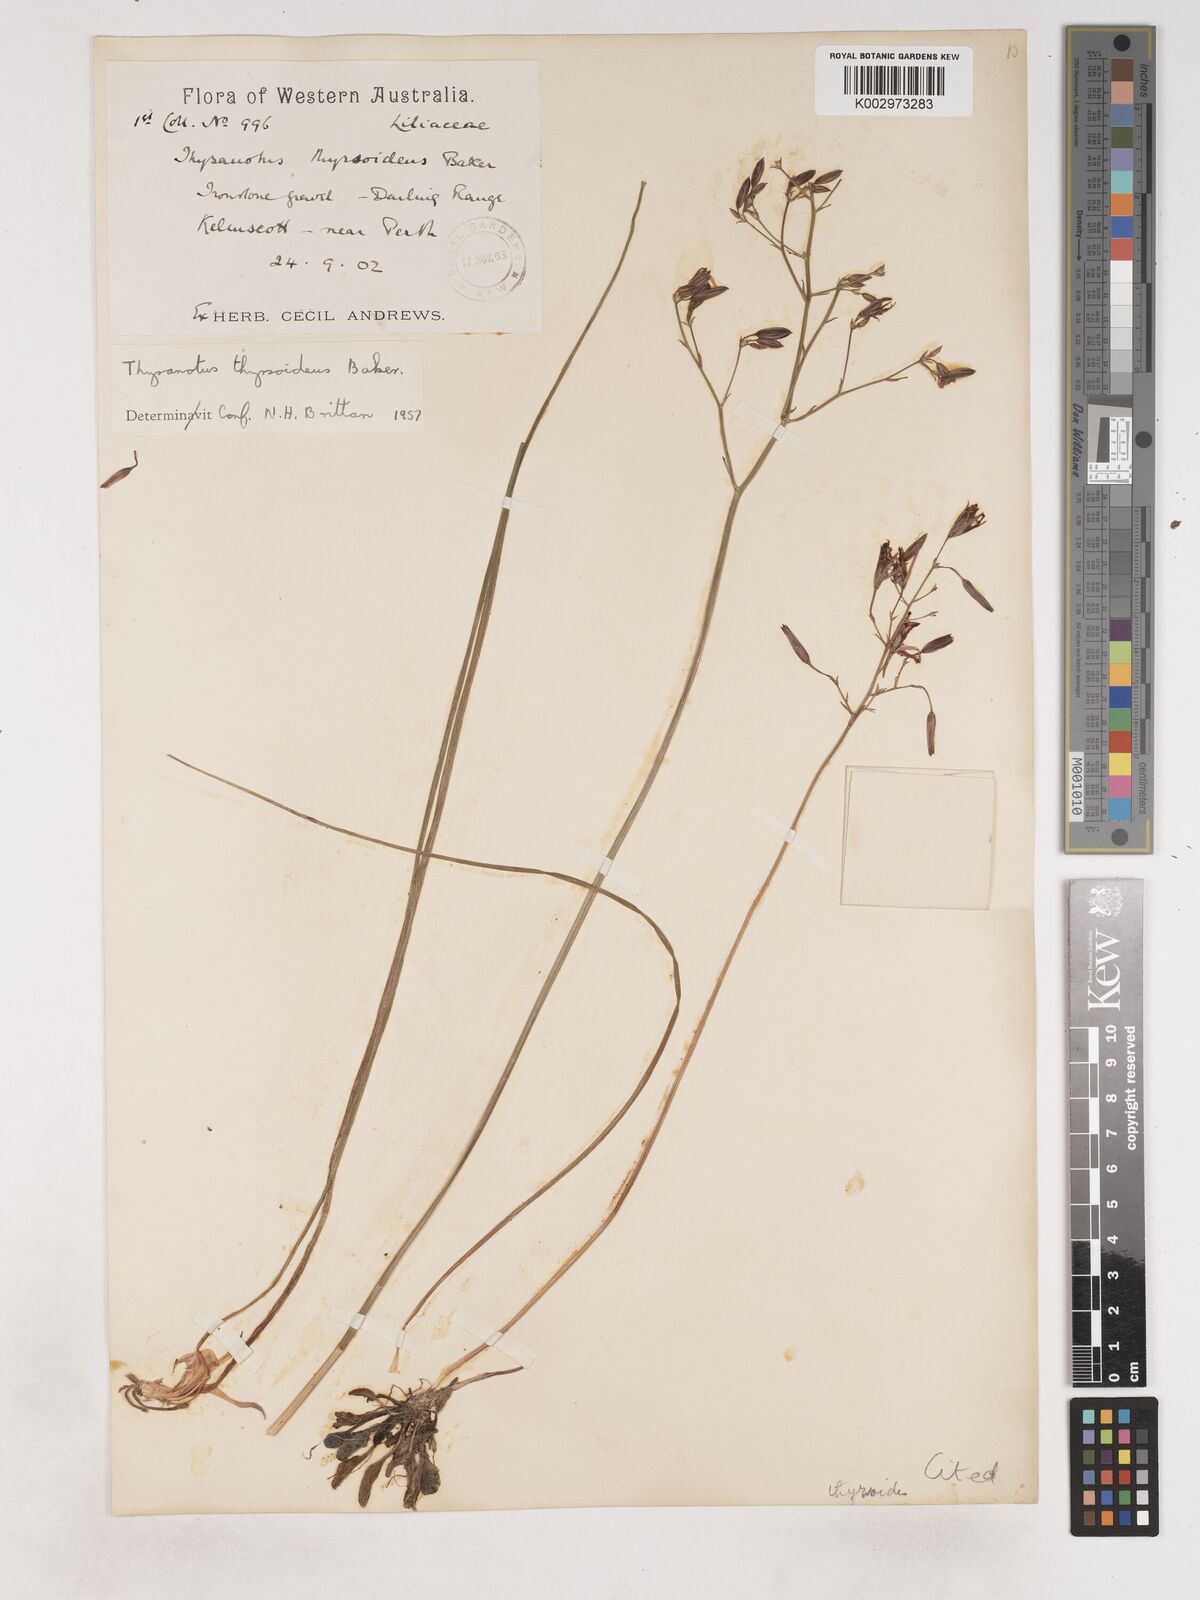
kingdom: Plantae
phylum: Tracheophyta
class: Liliopsida
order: Asparagales
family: Asparagaceae
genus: Thysanotus
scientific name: Thysanotus thyrsoideus
